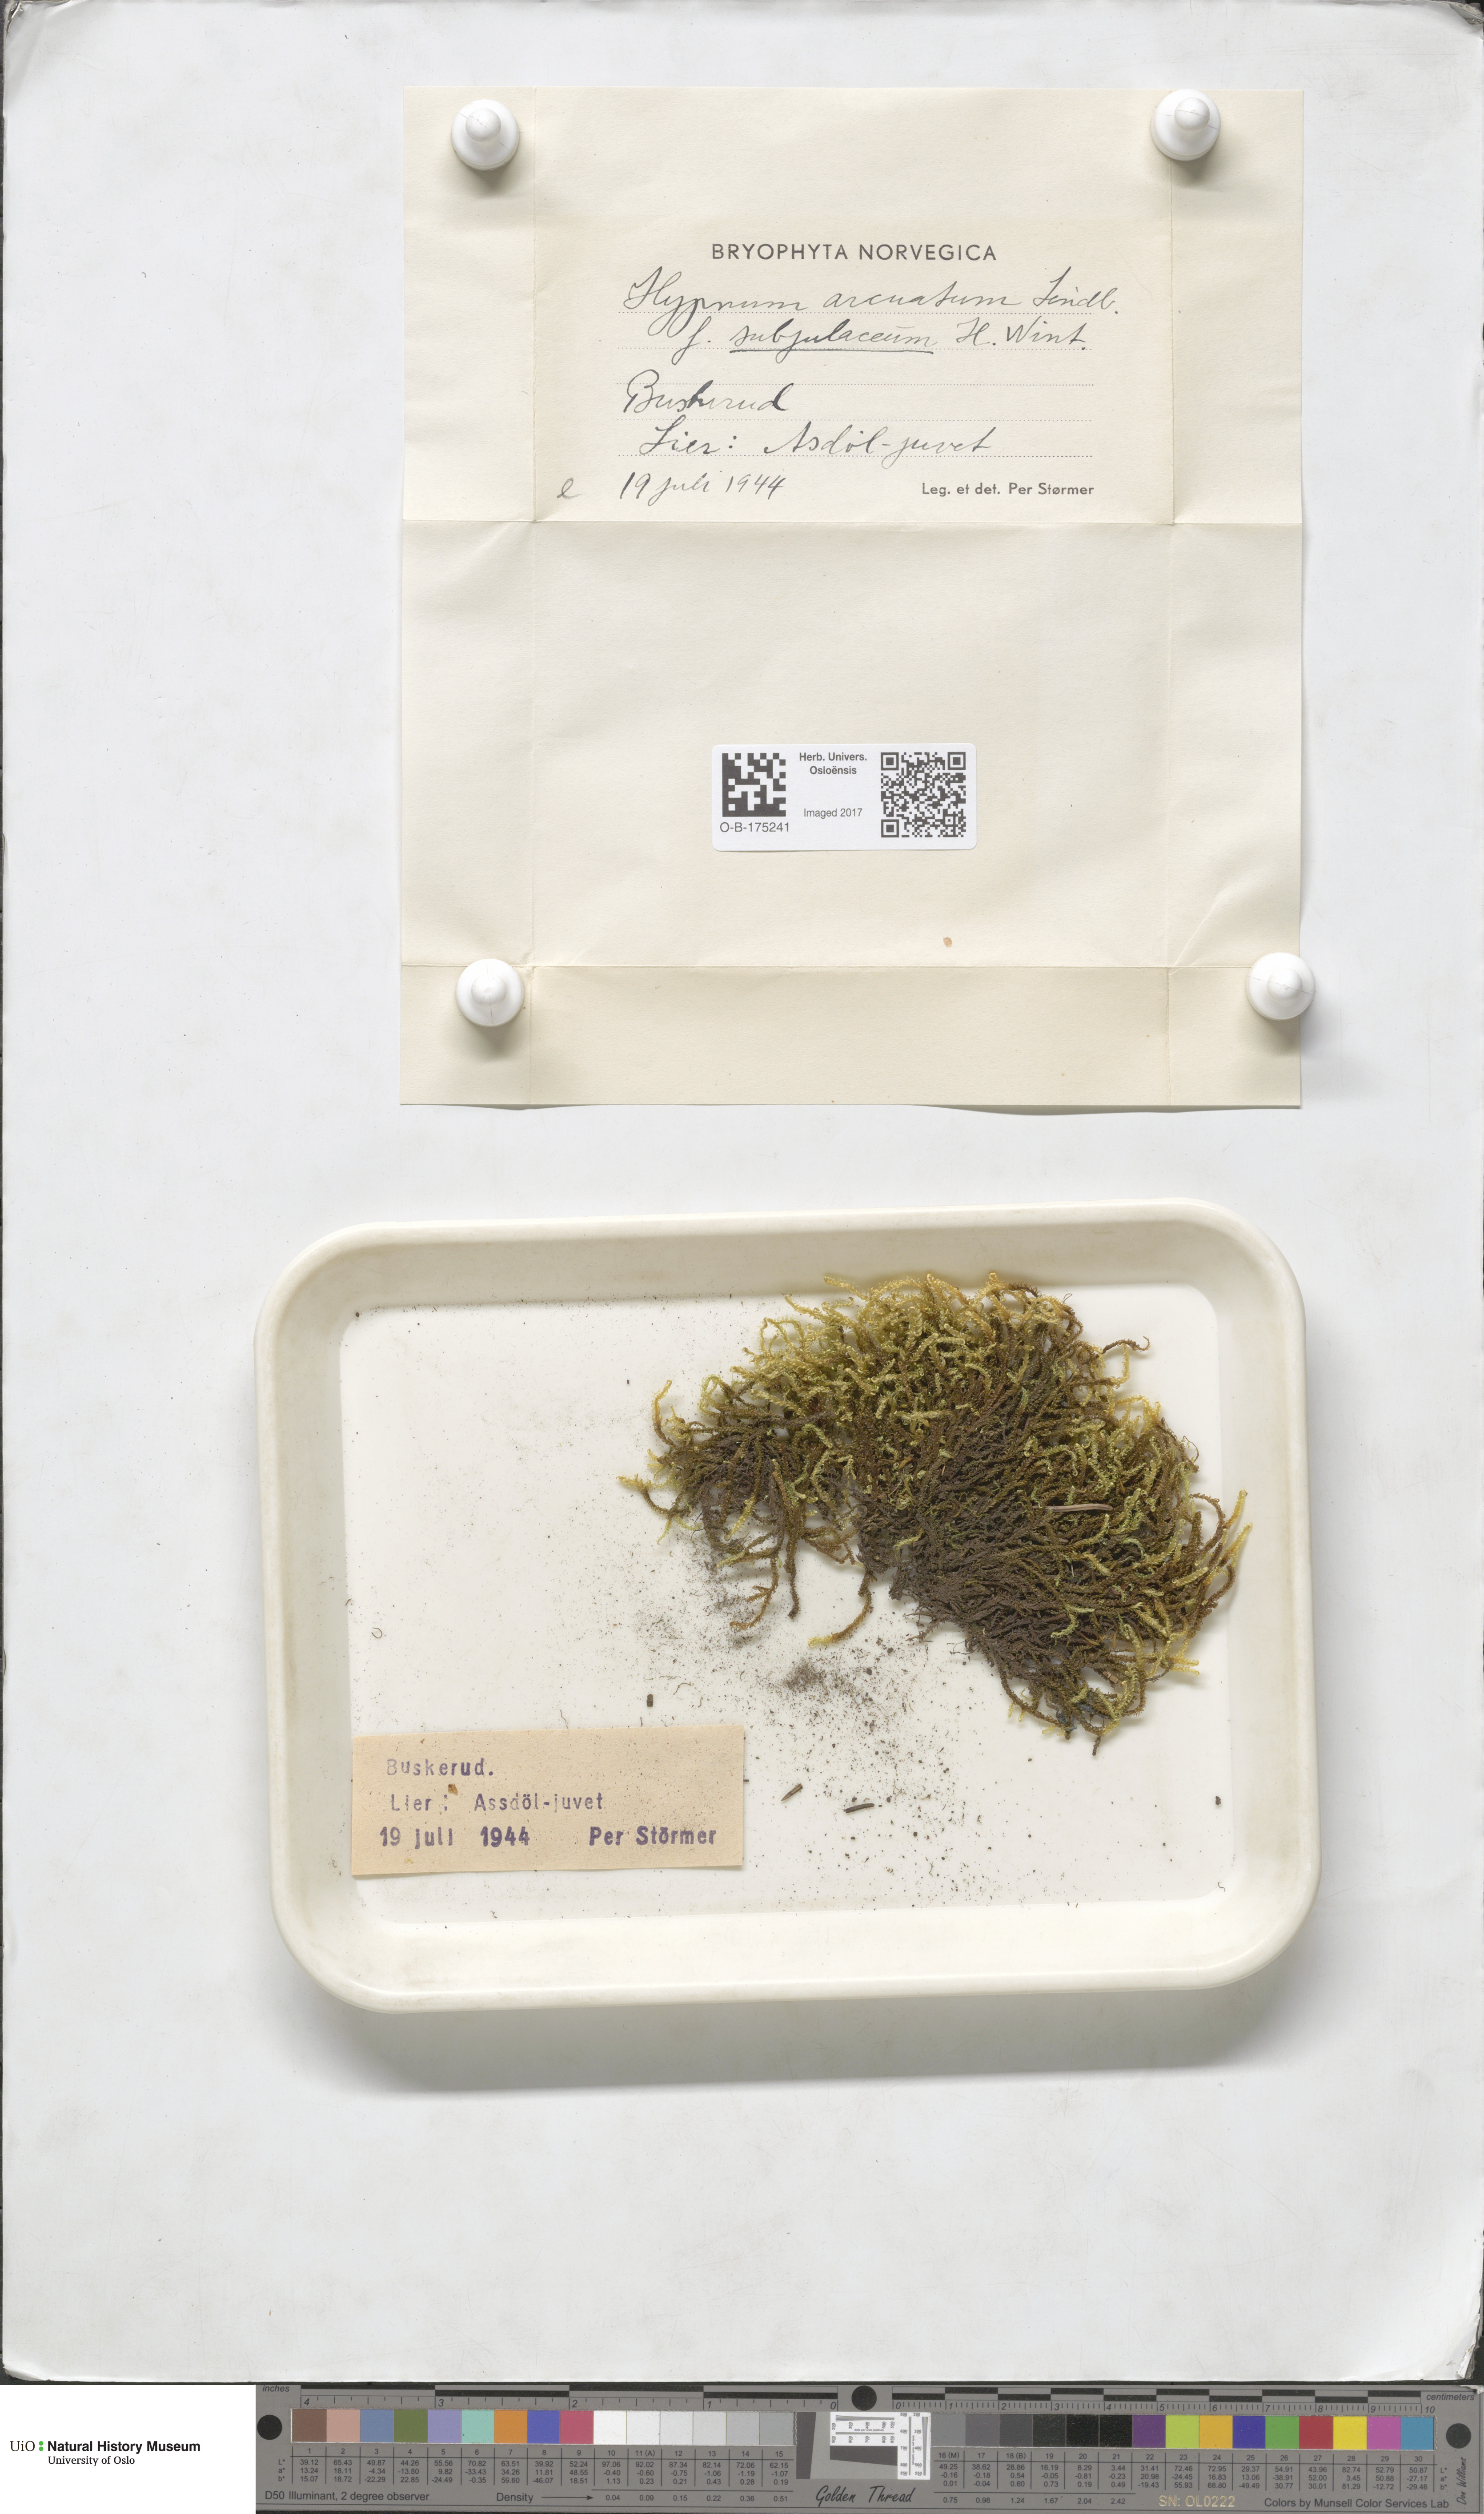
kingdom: Plantae
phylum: Bryophyta
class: Bryopsida
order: Hypnales
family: Pylaisiaceae
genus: Calliergonella
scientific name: Calliergonella lindbergii
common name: Lindberg's plait-moss
